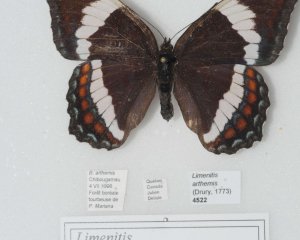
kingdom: Animalia
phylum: Arthropoda
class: Insecta
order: Lepidoptera
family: Nymphalidae
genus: Limenitis
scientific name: Limenitis arthemis
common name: Red-spotted Admiral
